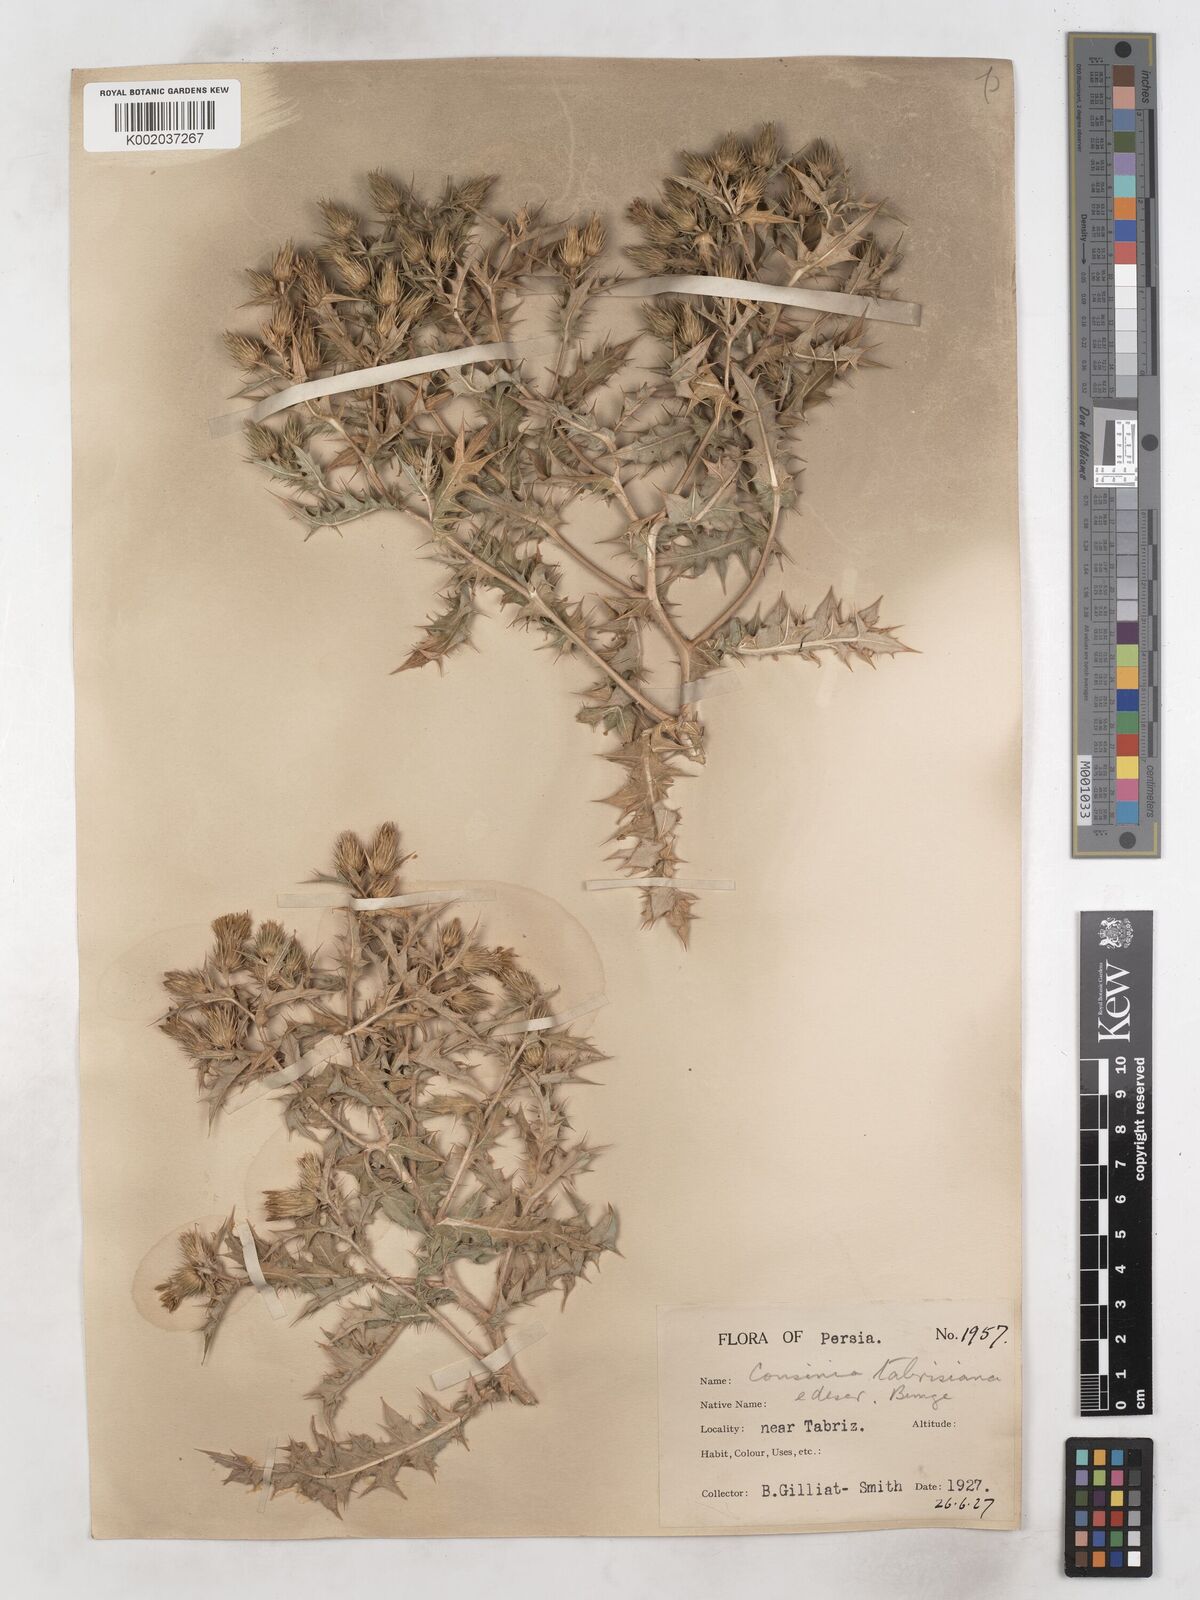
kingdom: Plantae
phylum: Tracheophyta
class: Magnoliopsida
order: Asterales
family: Asteraceae
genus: Cousinia
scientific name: Cousinia tabrisiana
